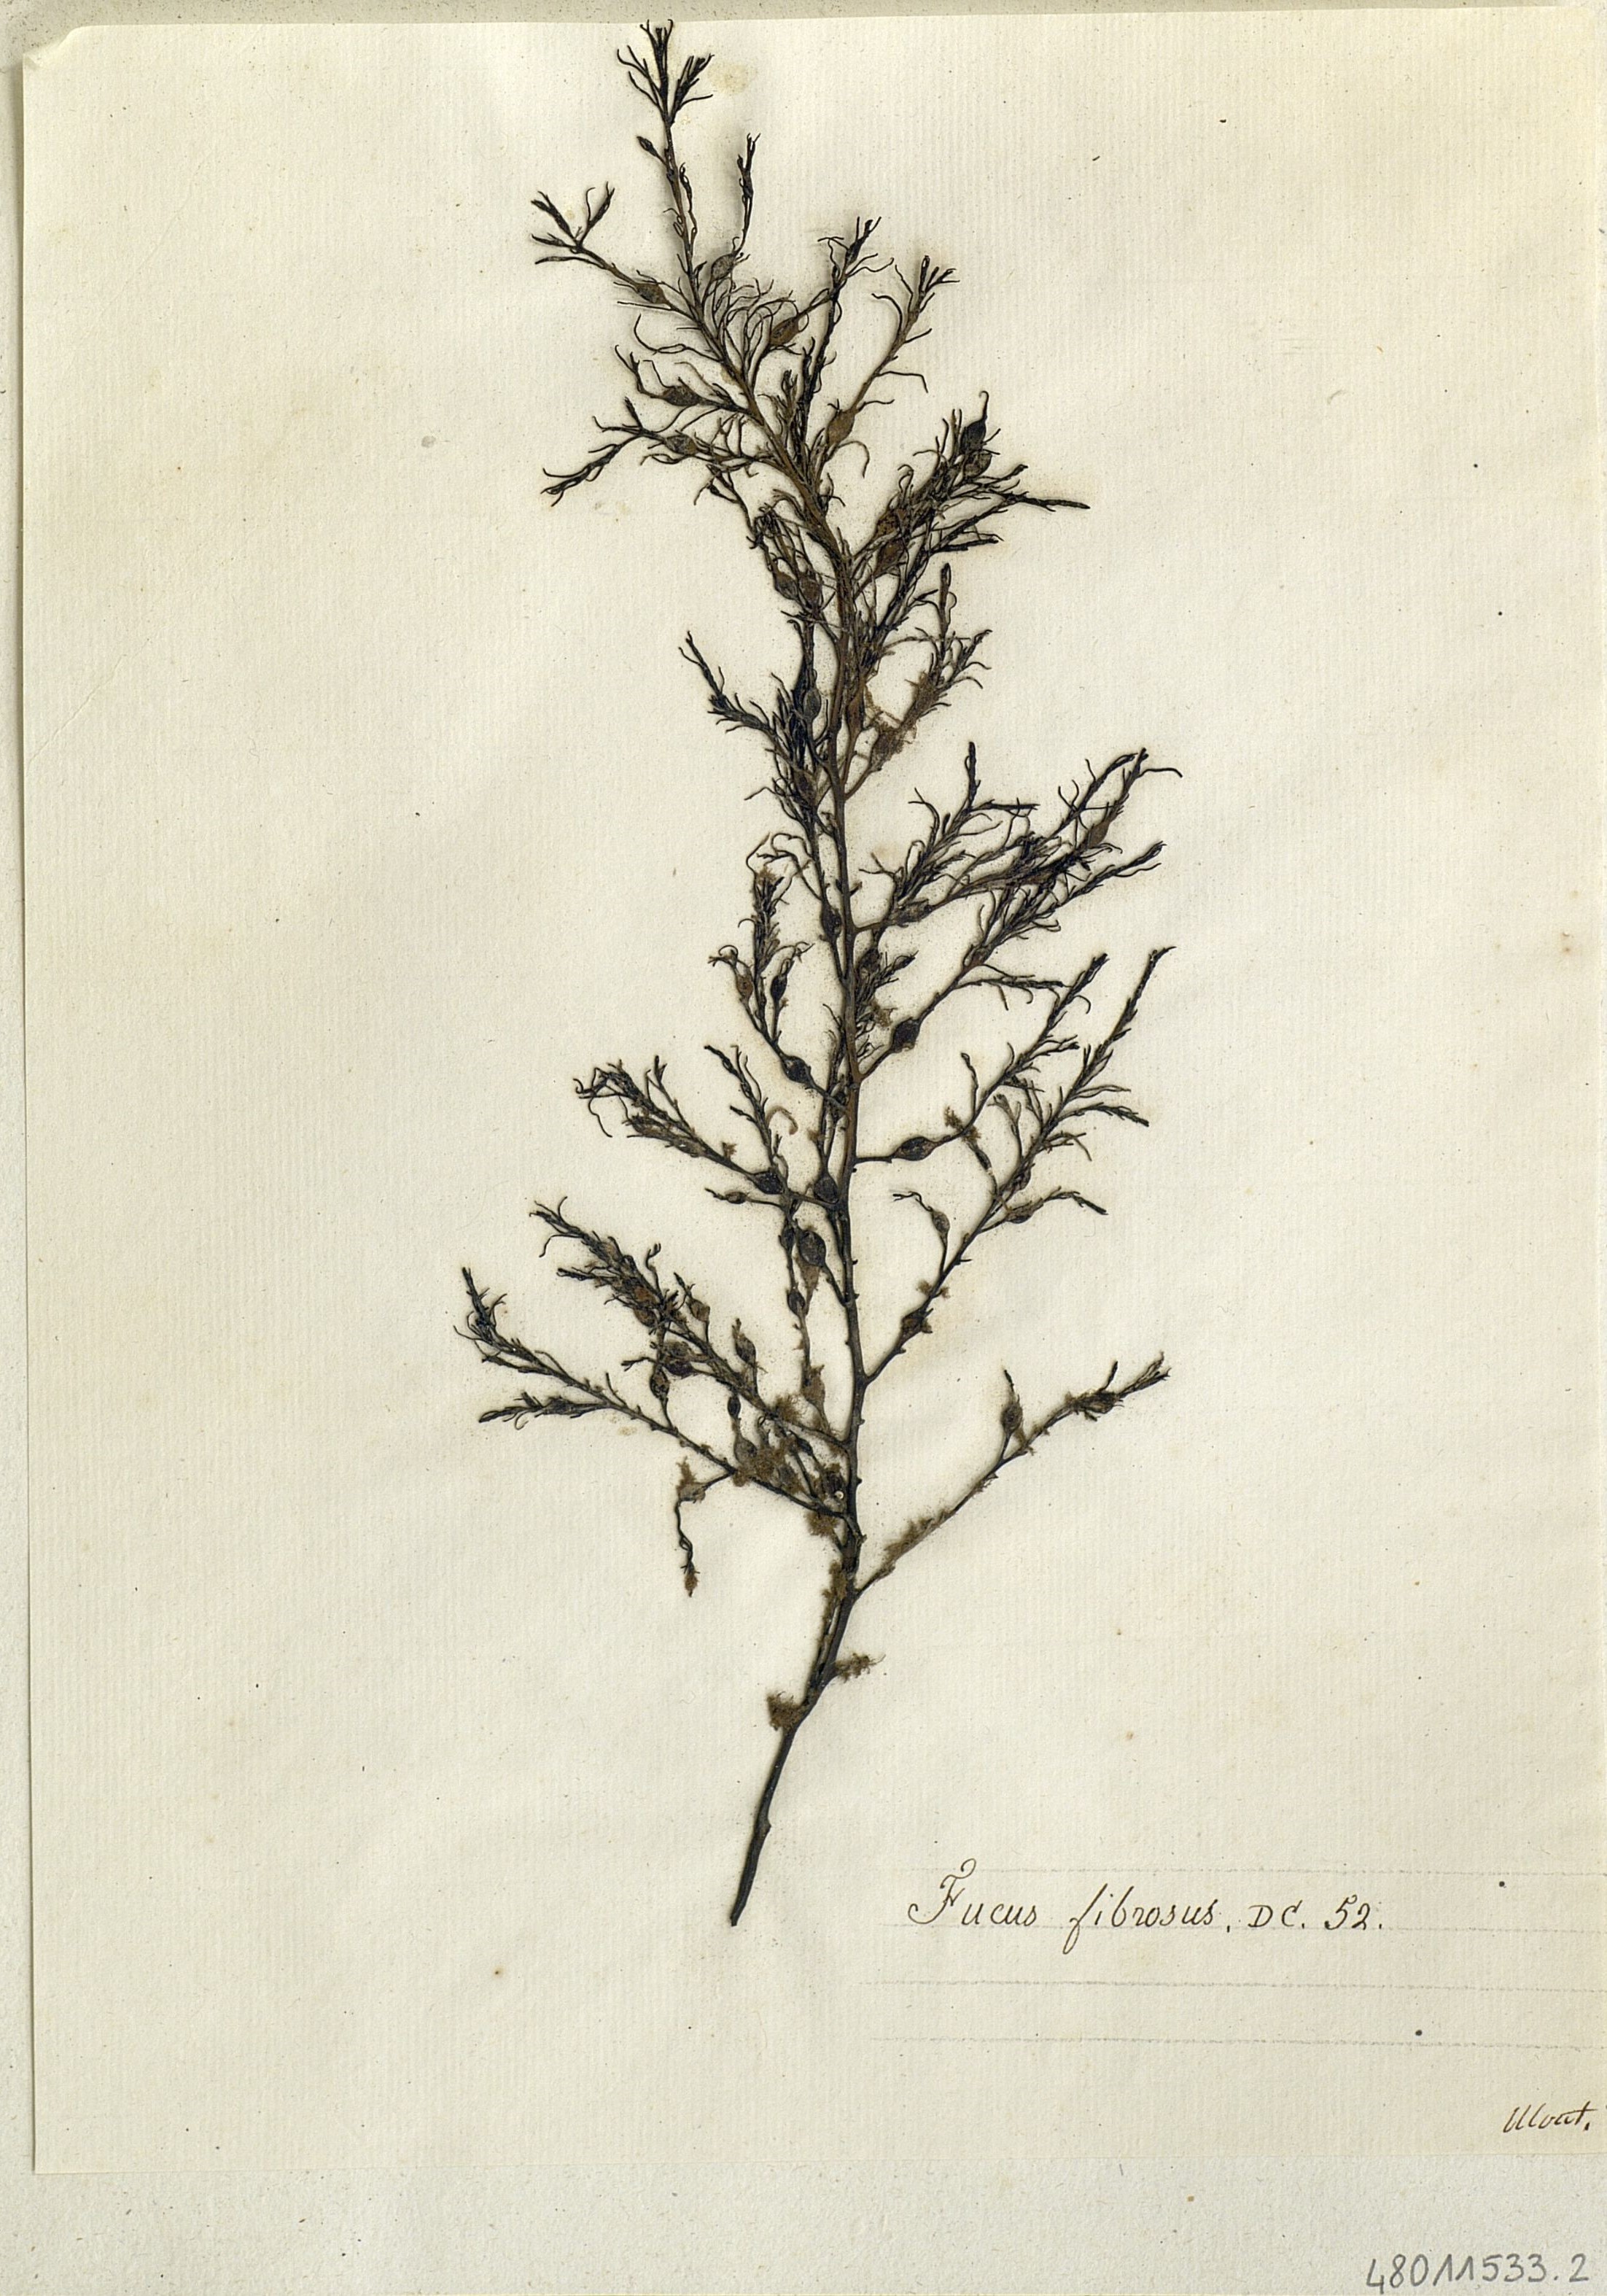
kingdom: Chromista
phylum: Ochrophyta
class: Phaeophyceae
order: Fucales
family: Sargassaceae
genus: Cystoseira
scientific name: Cystoseira Gongolaria baccata
